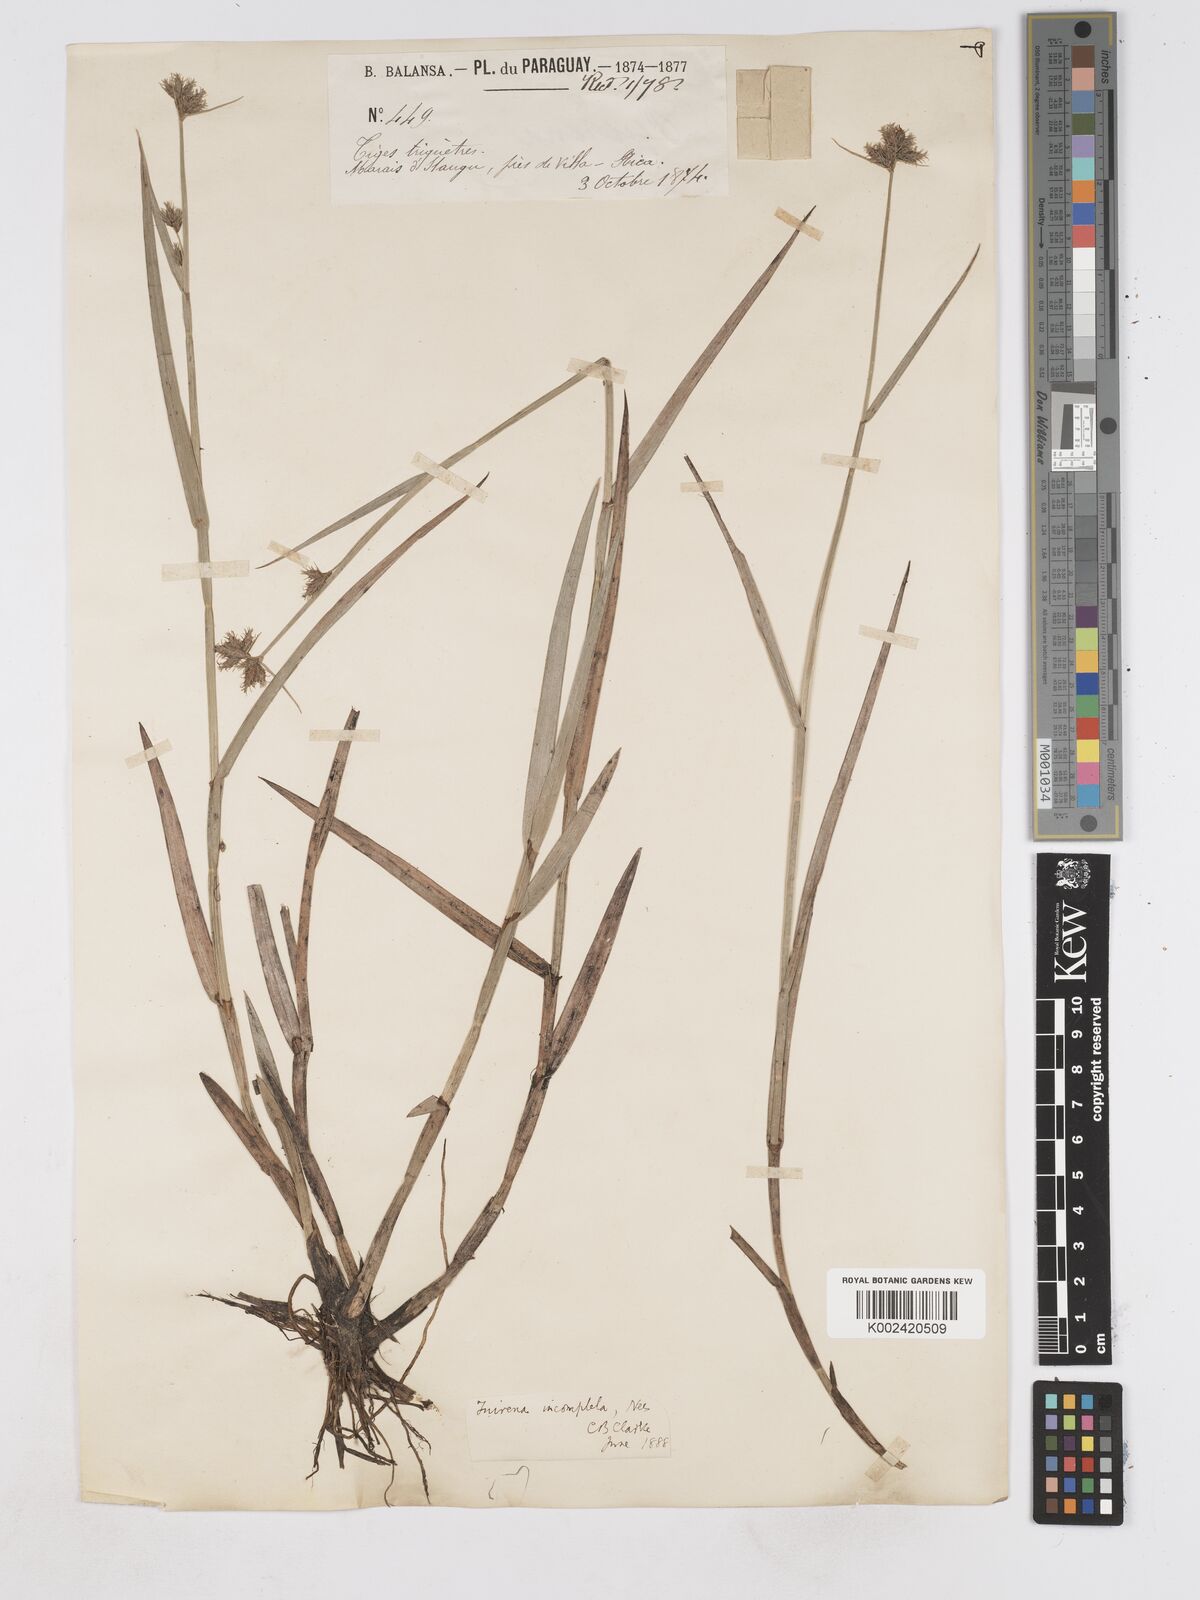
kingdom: Plantae
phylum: Tracheophyta
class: Liliopsida
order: Poales
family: Cyperaceae
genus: Fuirena
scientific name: Fuirena incompleta
